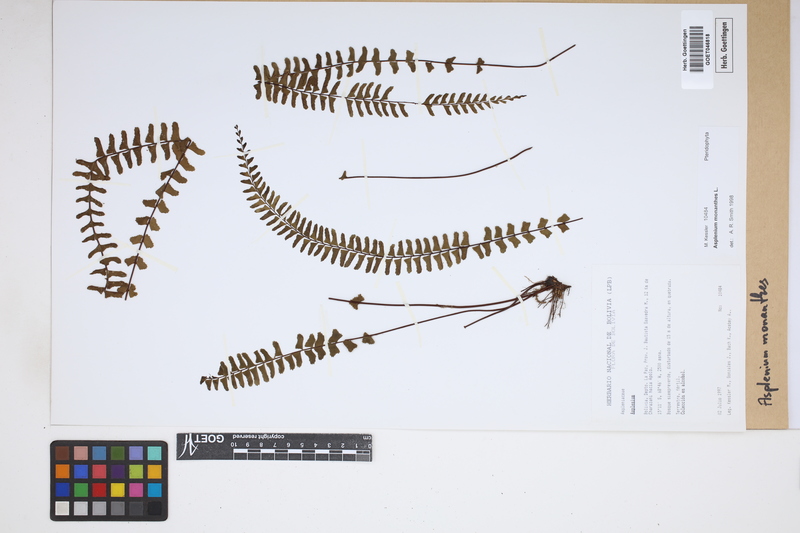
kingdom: Plantae
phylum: Tracheophyta
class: Polypodiopsida
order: Polypodiales
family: Aspleniaceae
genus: Asplenium
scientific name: Asplenium monanthes
